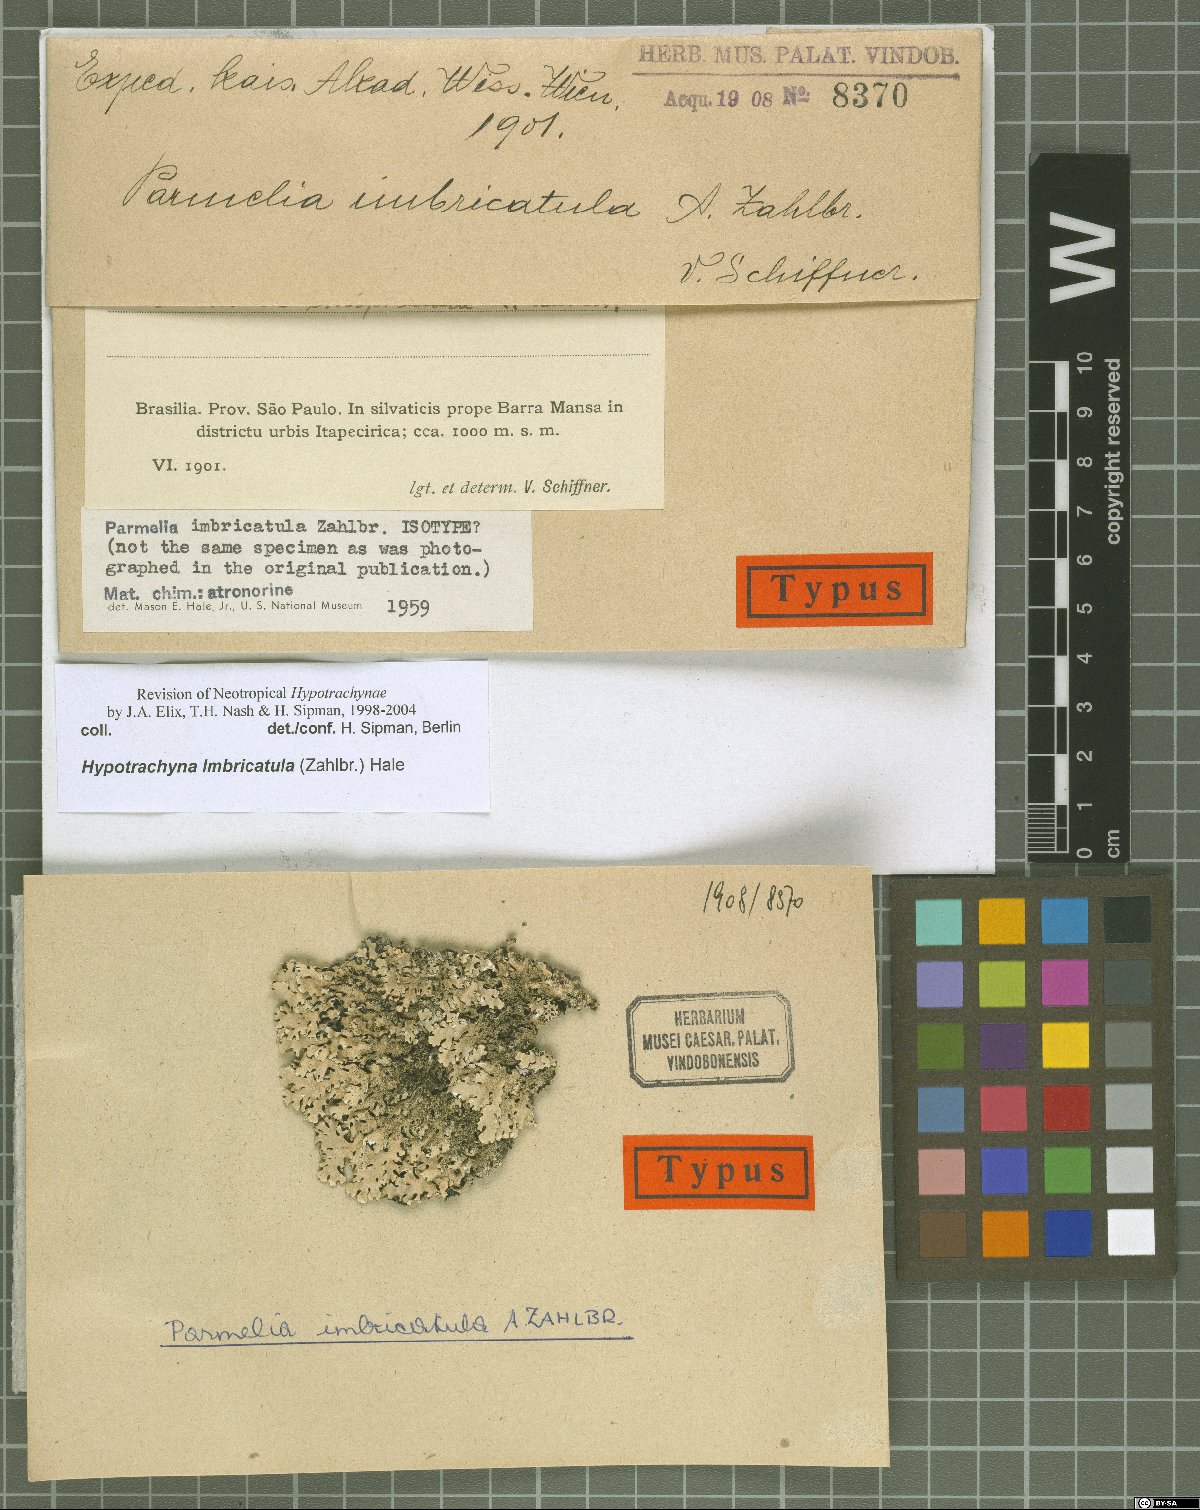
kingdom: Fungi
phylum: Ascomycota
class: Lecanoromycetes
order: Lecanorales
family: Parmeliaceae
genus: Hypotrachyna
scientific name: Hypotrachyna imbricatula
